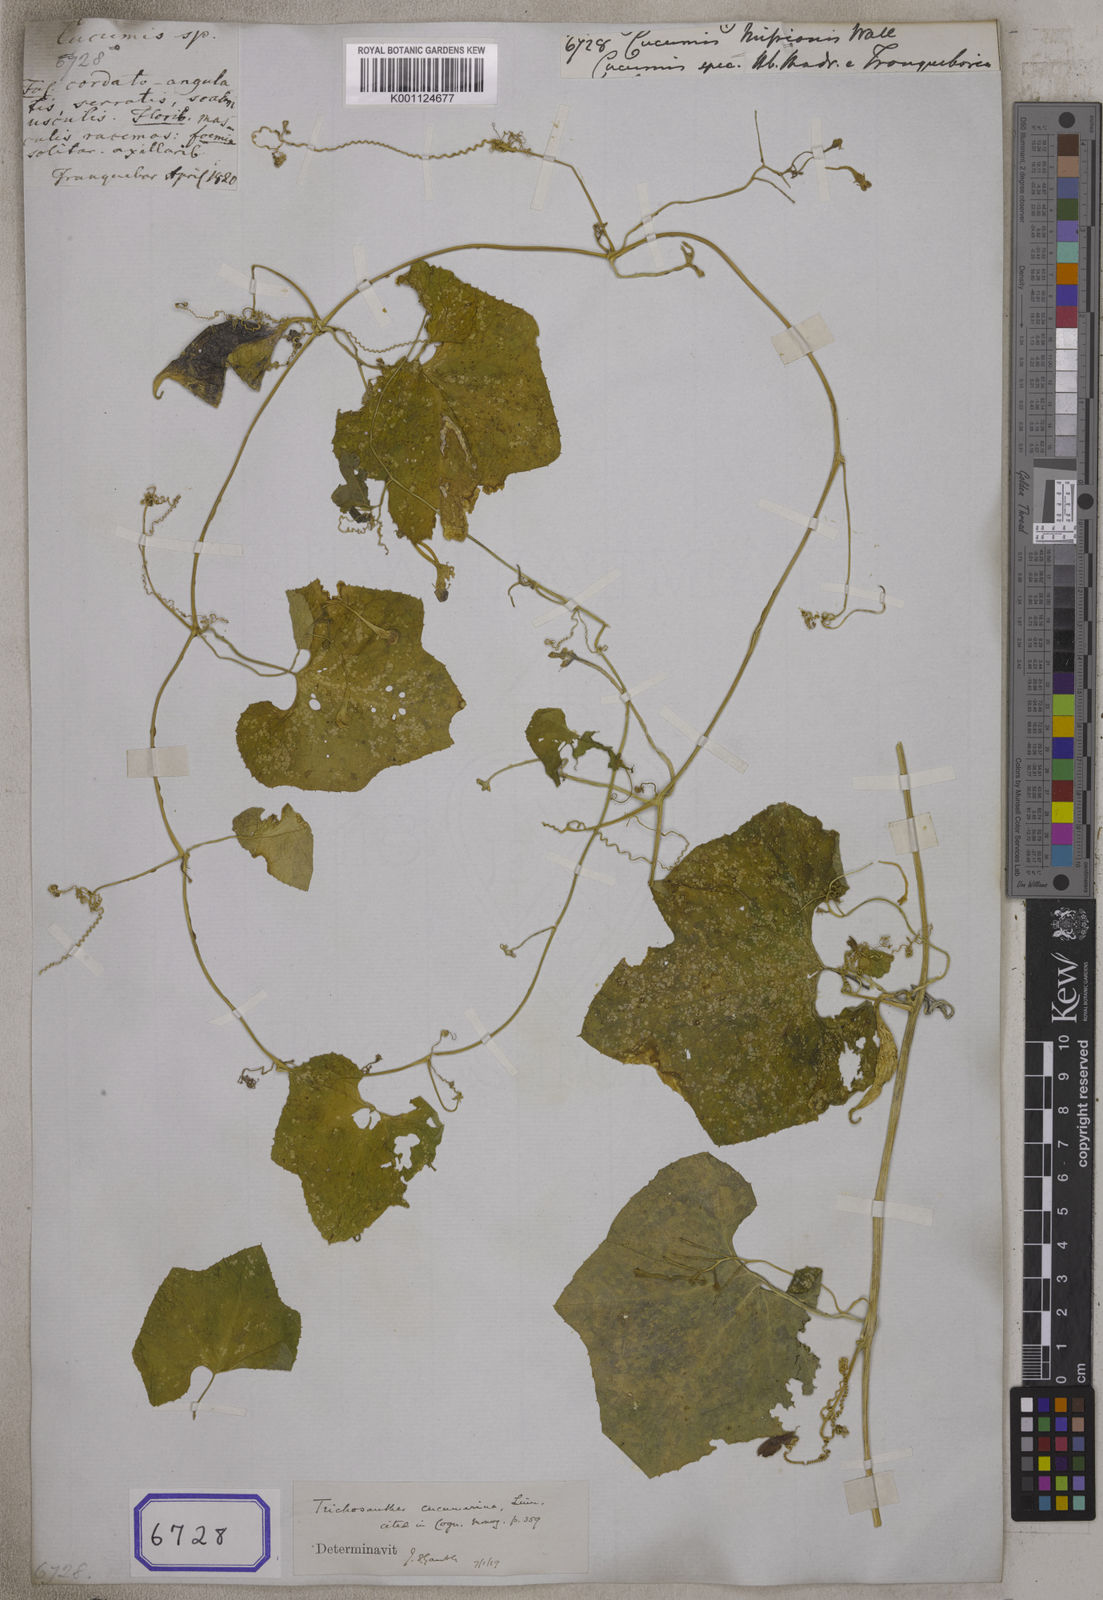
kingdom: Plantae
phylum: Tracheophyta
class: Magnoliopsida
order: Cucurbitales
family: Cucurbitaceae
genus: Cucumis
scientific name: Cucumis
